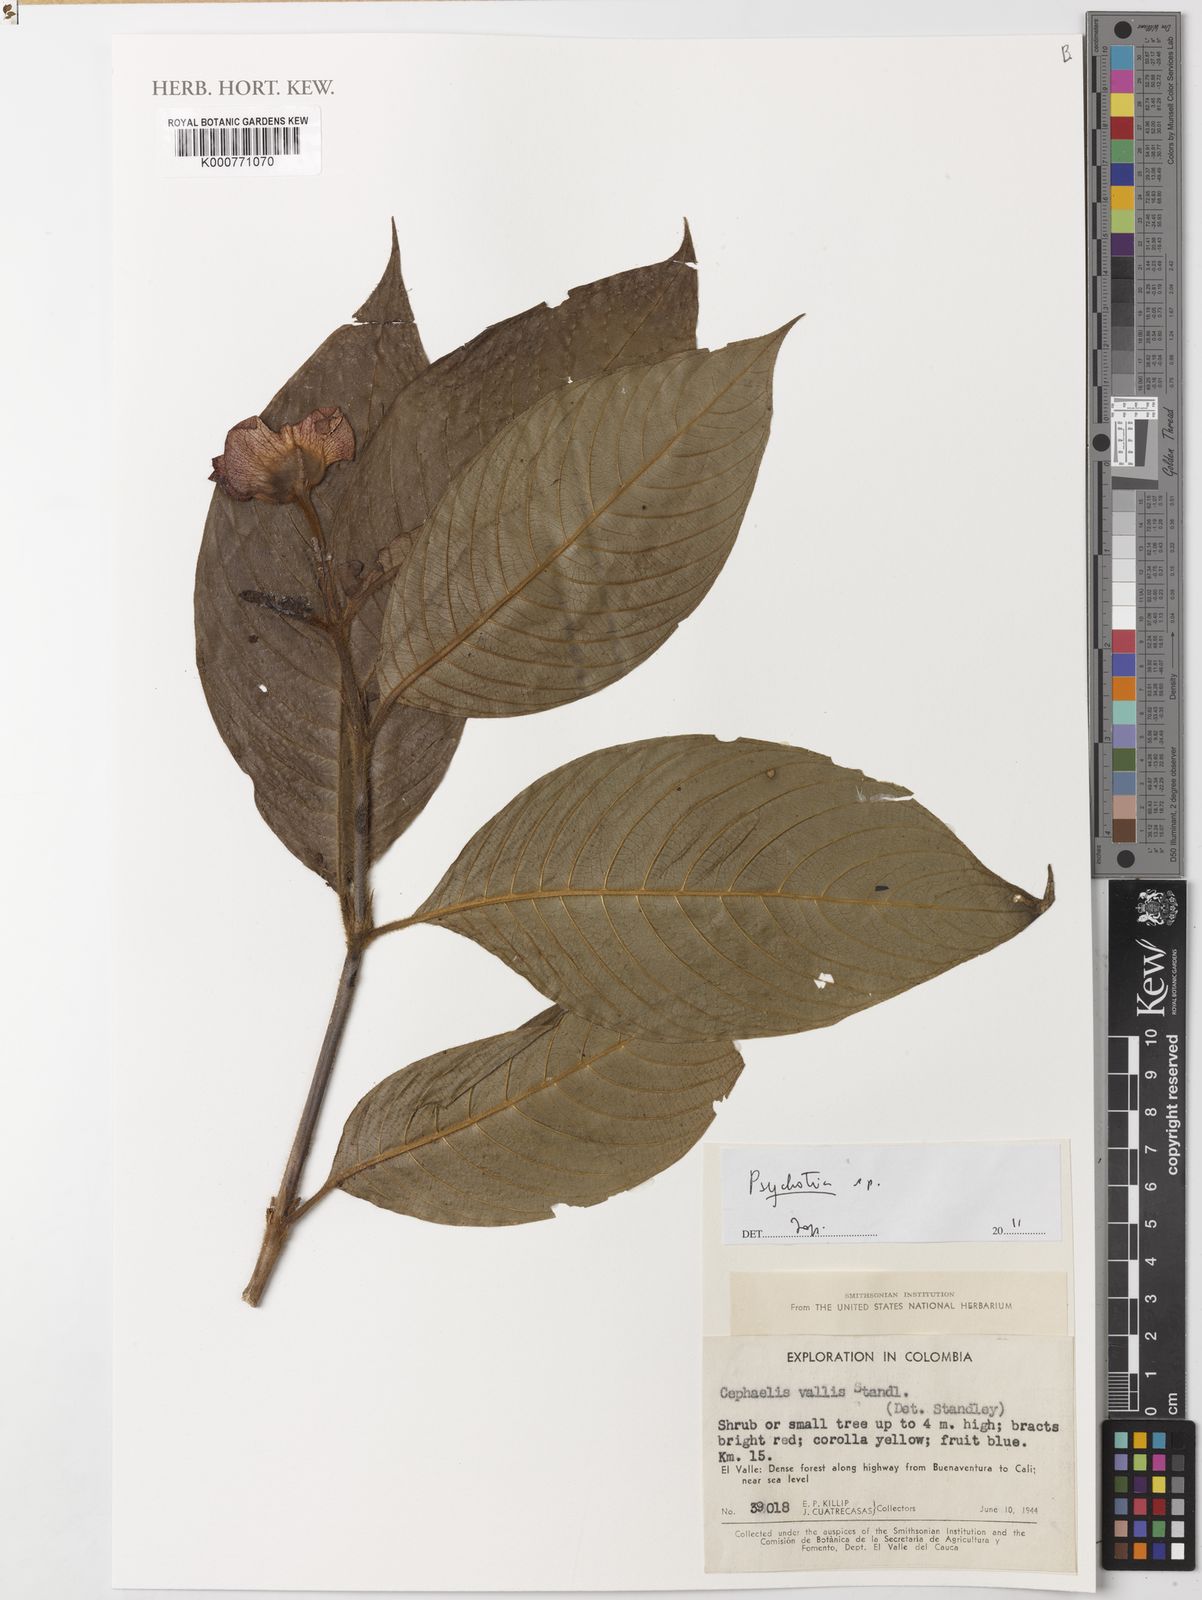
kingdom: Plantae
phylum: Tracheophyta
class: Magnoliopsida
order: Gentianales
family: Rubiaceae
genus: Psychotria
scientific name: Psychotria
